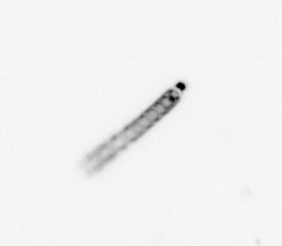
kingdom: Chromista
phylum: Ochrophyta
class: Bacillariophyceae
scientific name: Bacillariophyceae
